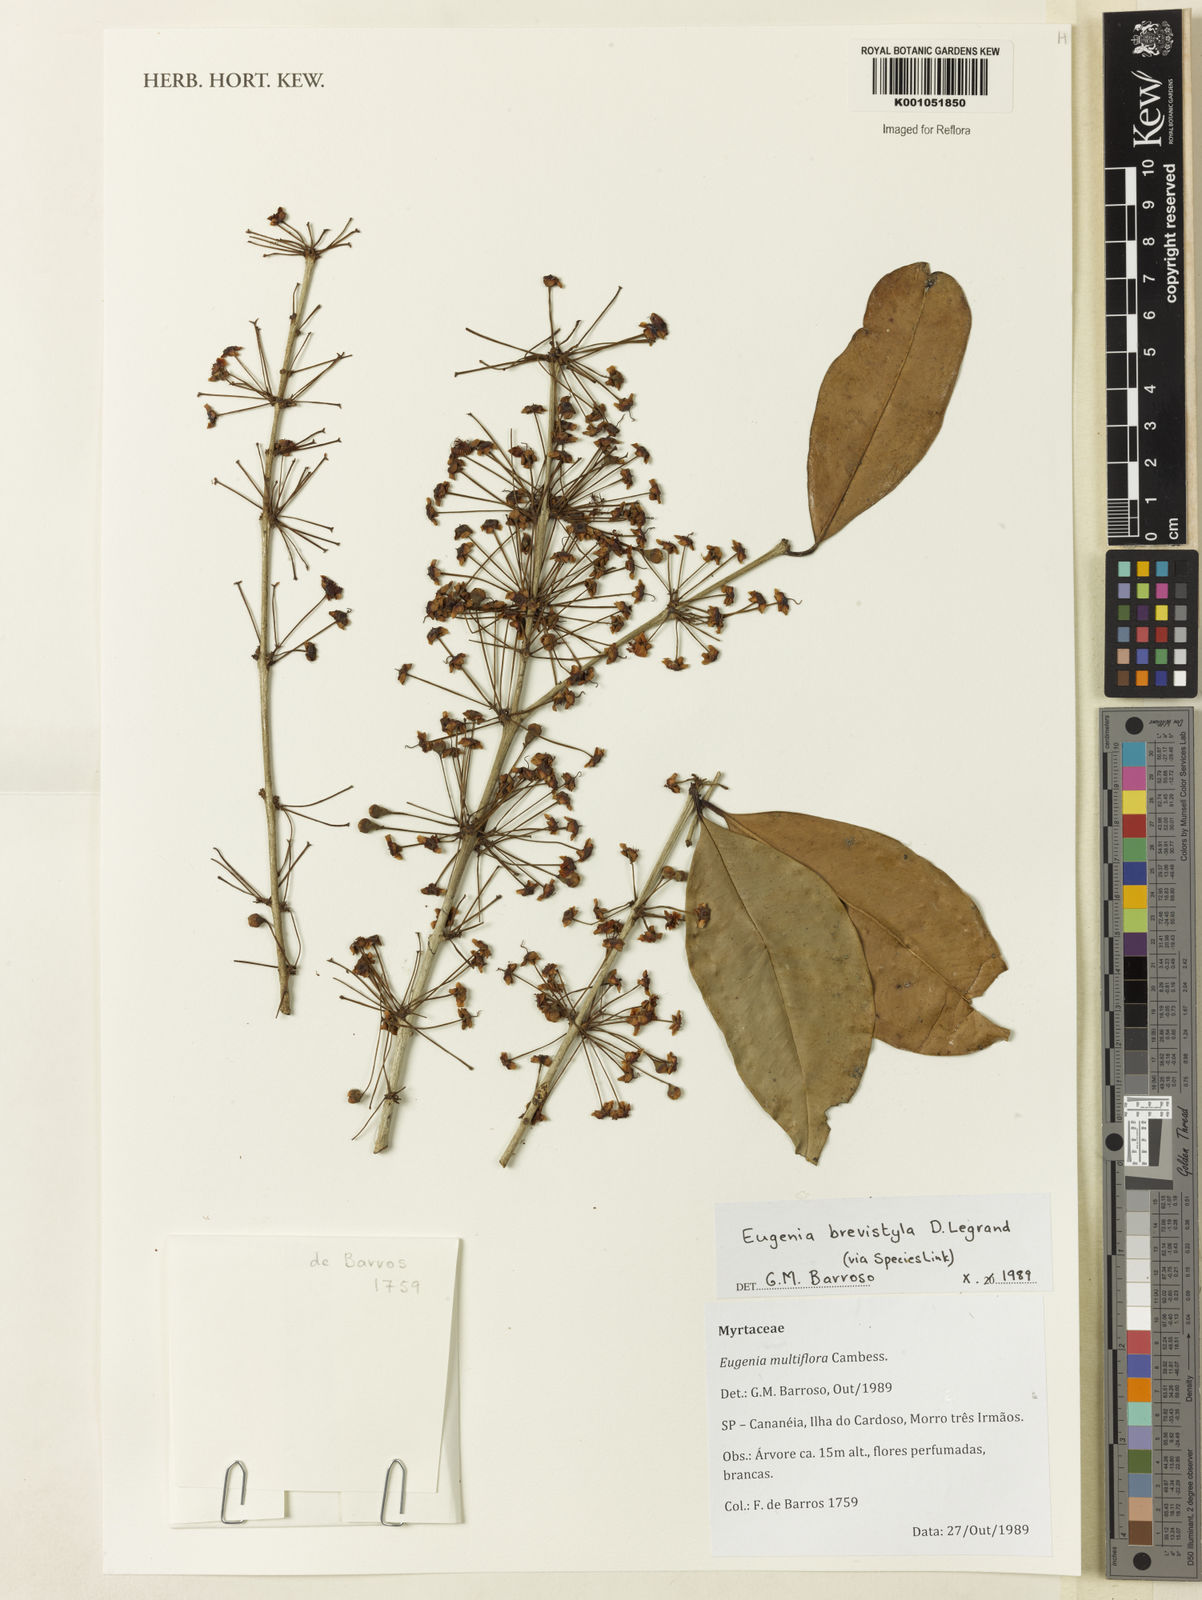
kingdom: Plantae
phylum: Tracheophyta
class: Magnoliopsida
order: Myrtales
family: Myrtaceae
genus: Eugenia
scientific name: Eugenia brevistyla
